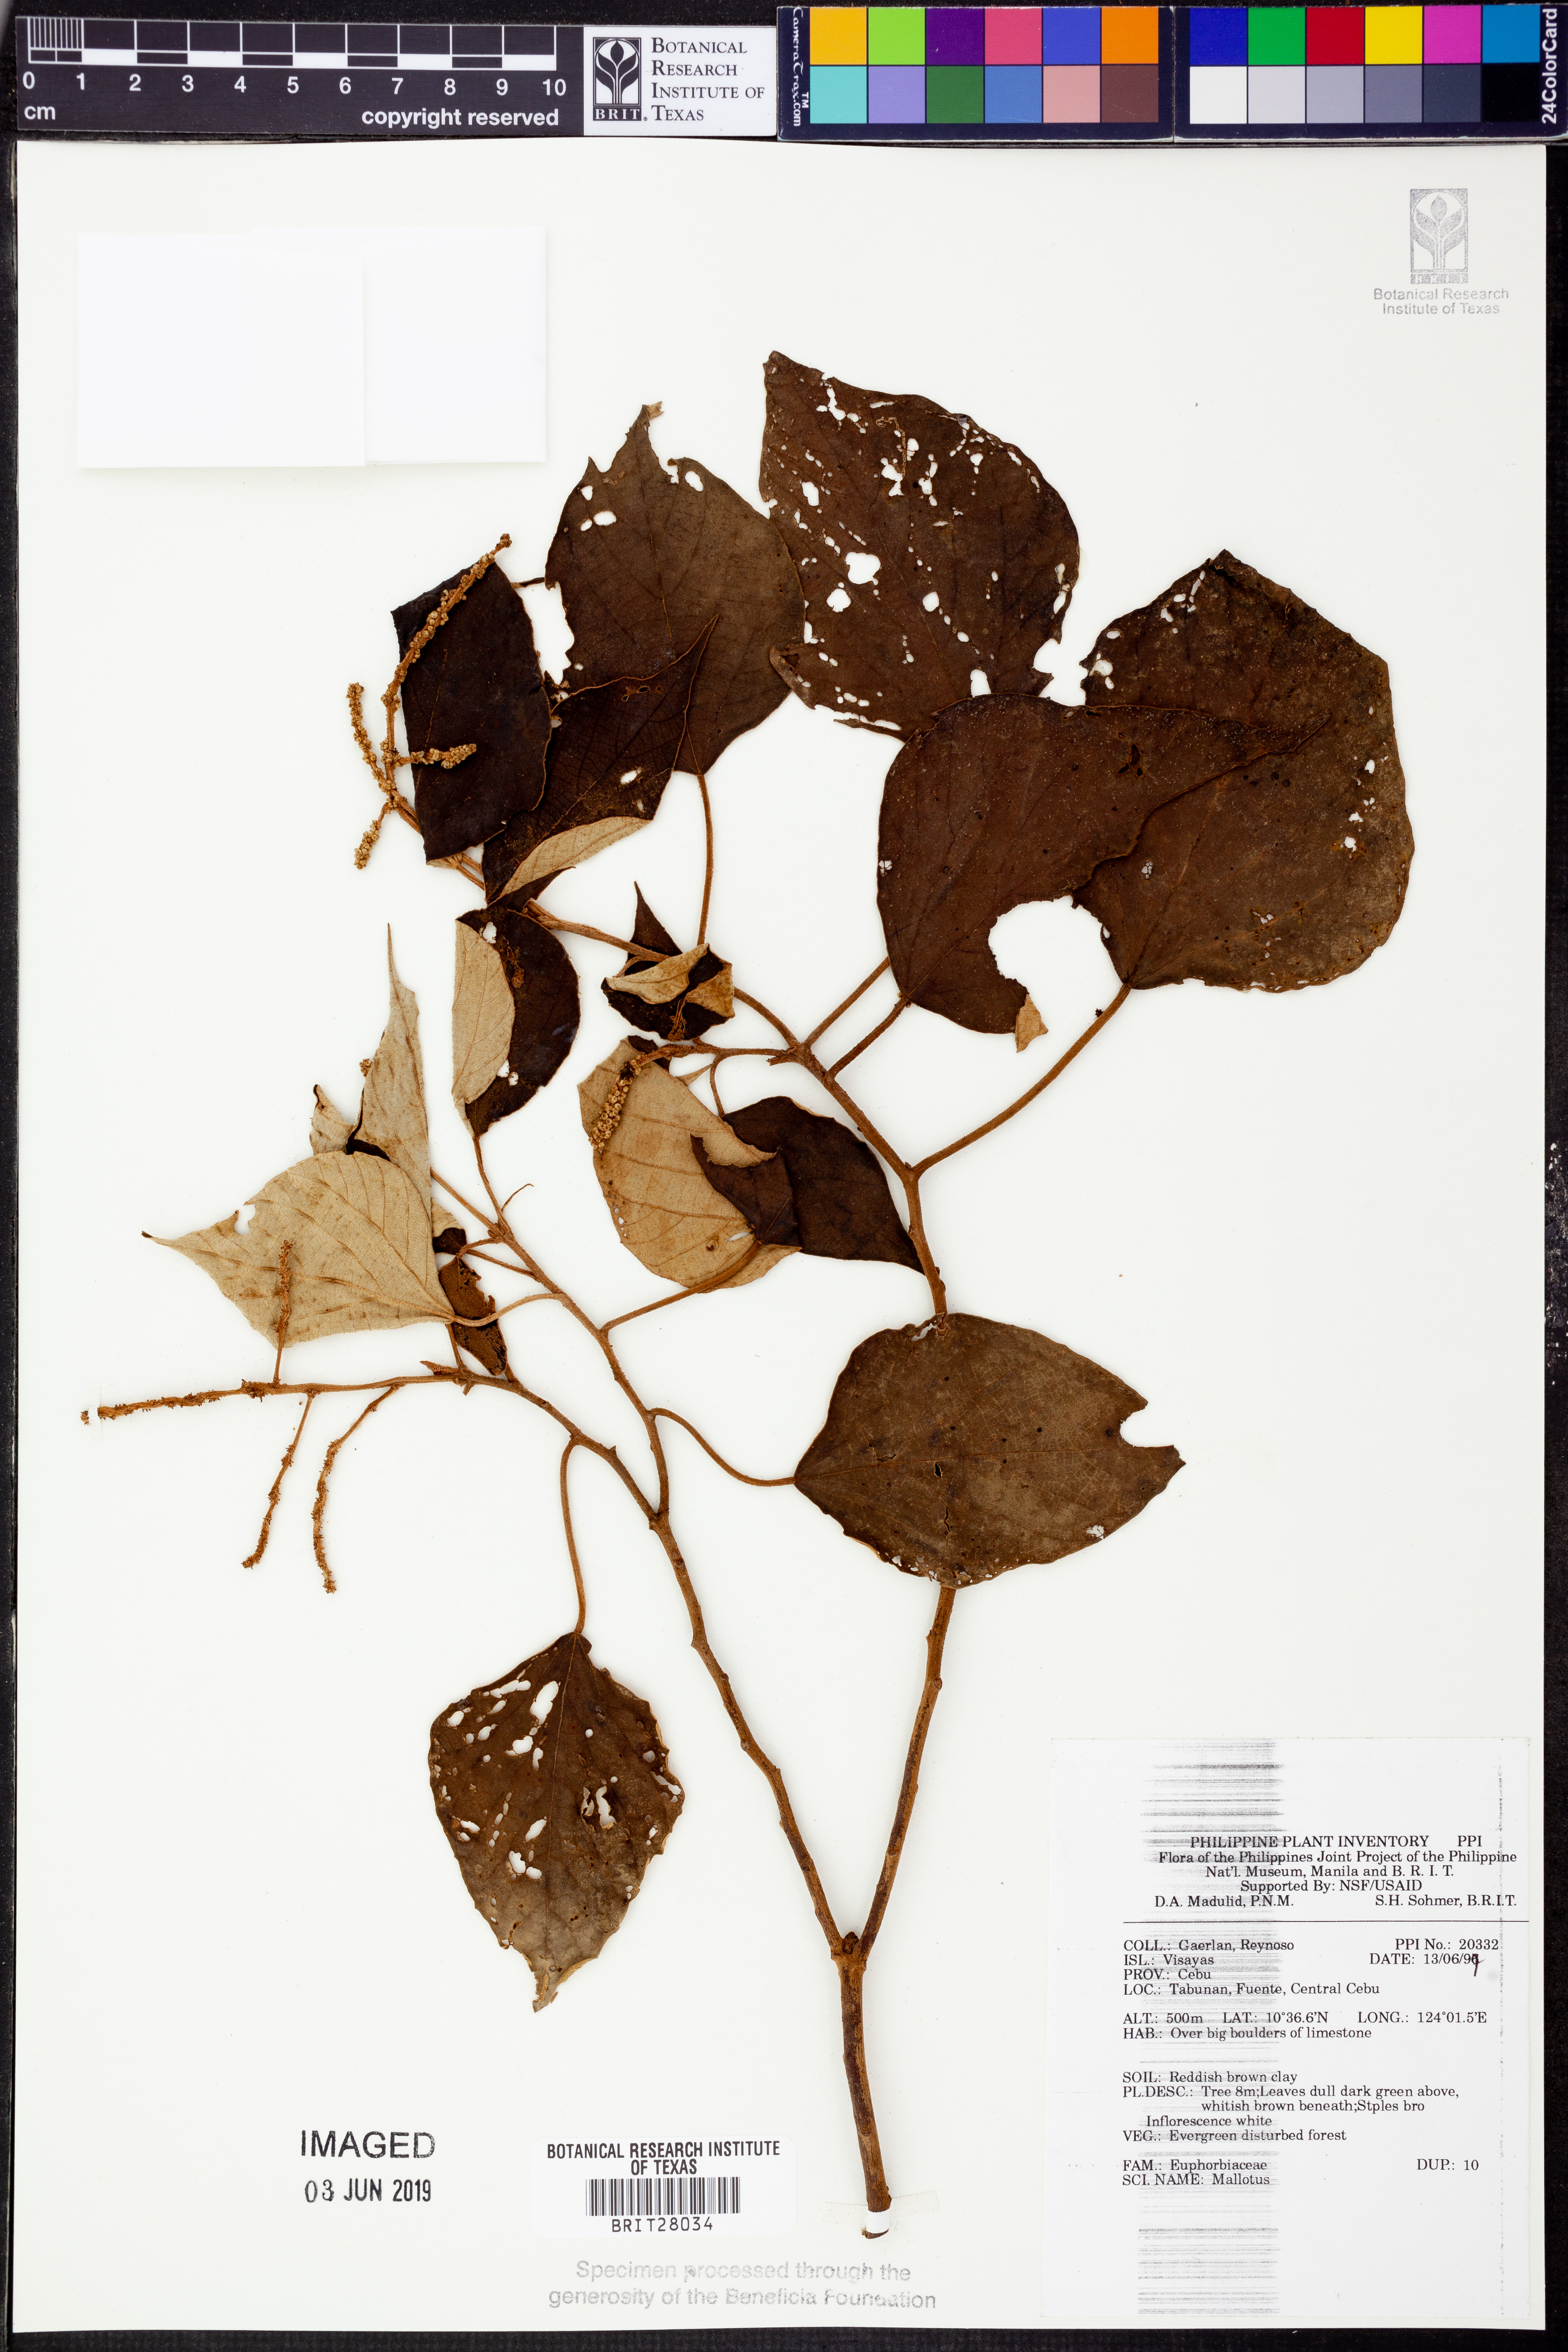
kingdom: Plantae
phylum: Tracheophyta
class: Magnoliopsida
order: Malpighiales
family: Euphorbiaceae
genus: Mallotus
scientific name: Mallotus
